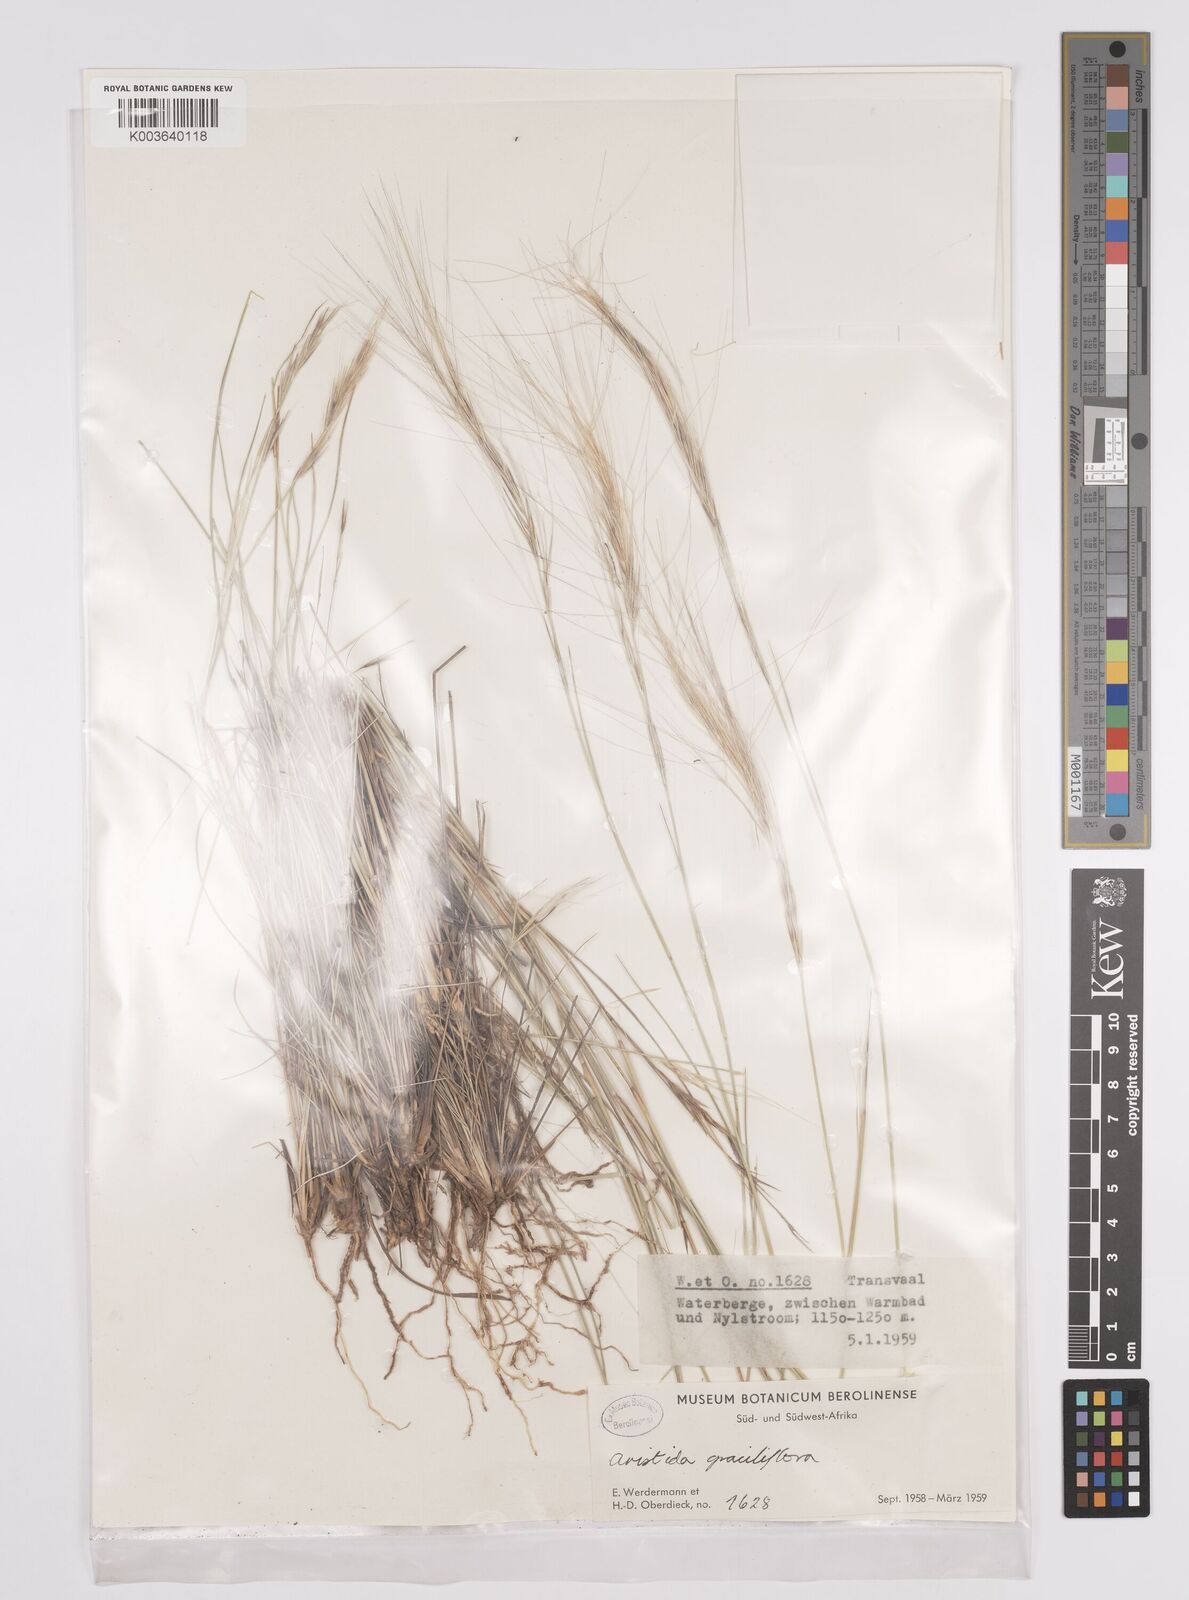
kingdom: Plantae
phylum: Tracheophyta
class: Liliopsida
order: Poales
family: Poaceae
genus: Aristida
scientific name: Aristida stipitata
